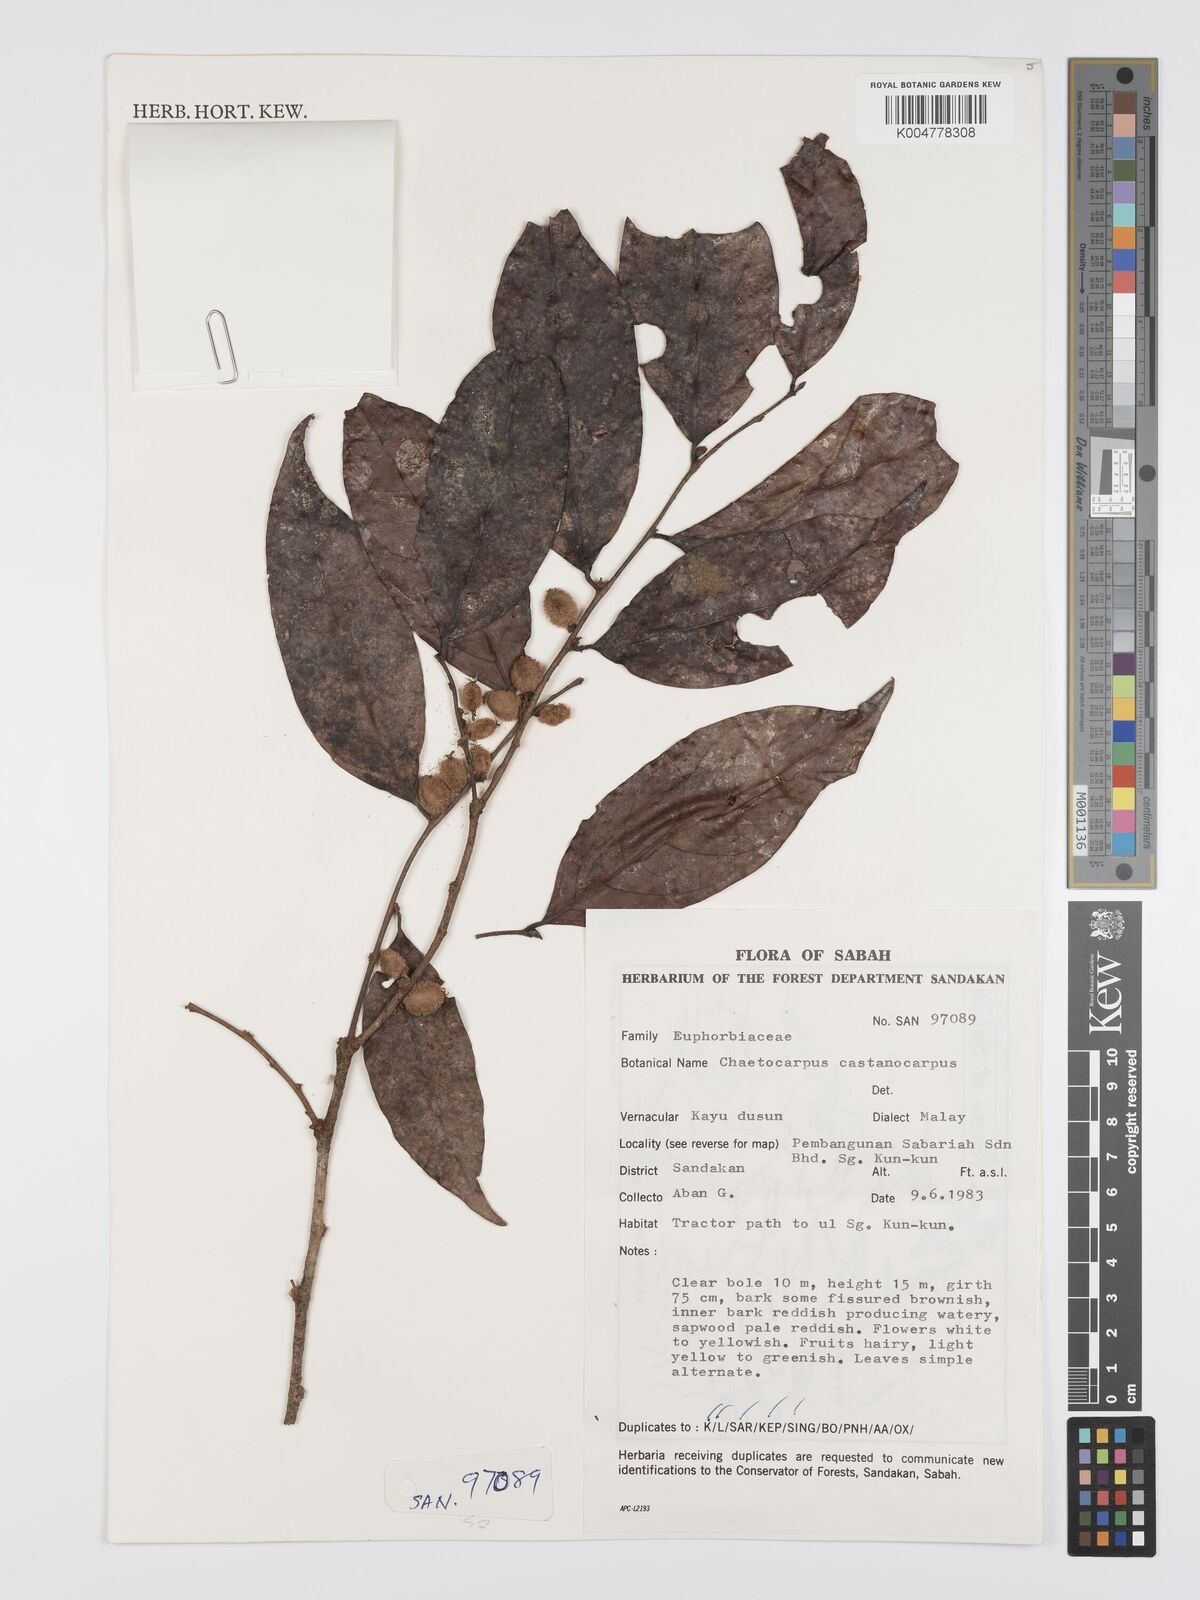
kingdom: Plantae
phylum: Tracheophyta
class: Magnoliopsida
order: Malpighiales
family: Peraceae
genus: Chaetocarpus
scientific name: Chaetocarpus castanocarpus
